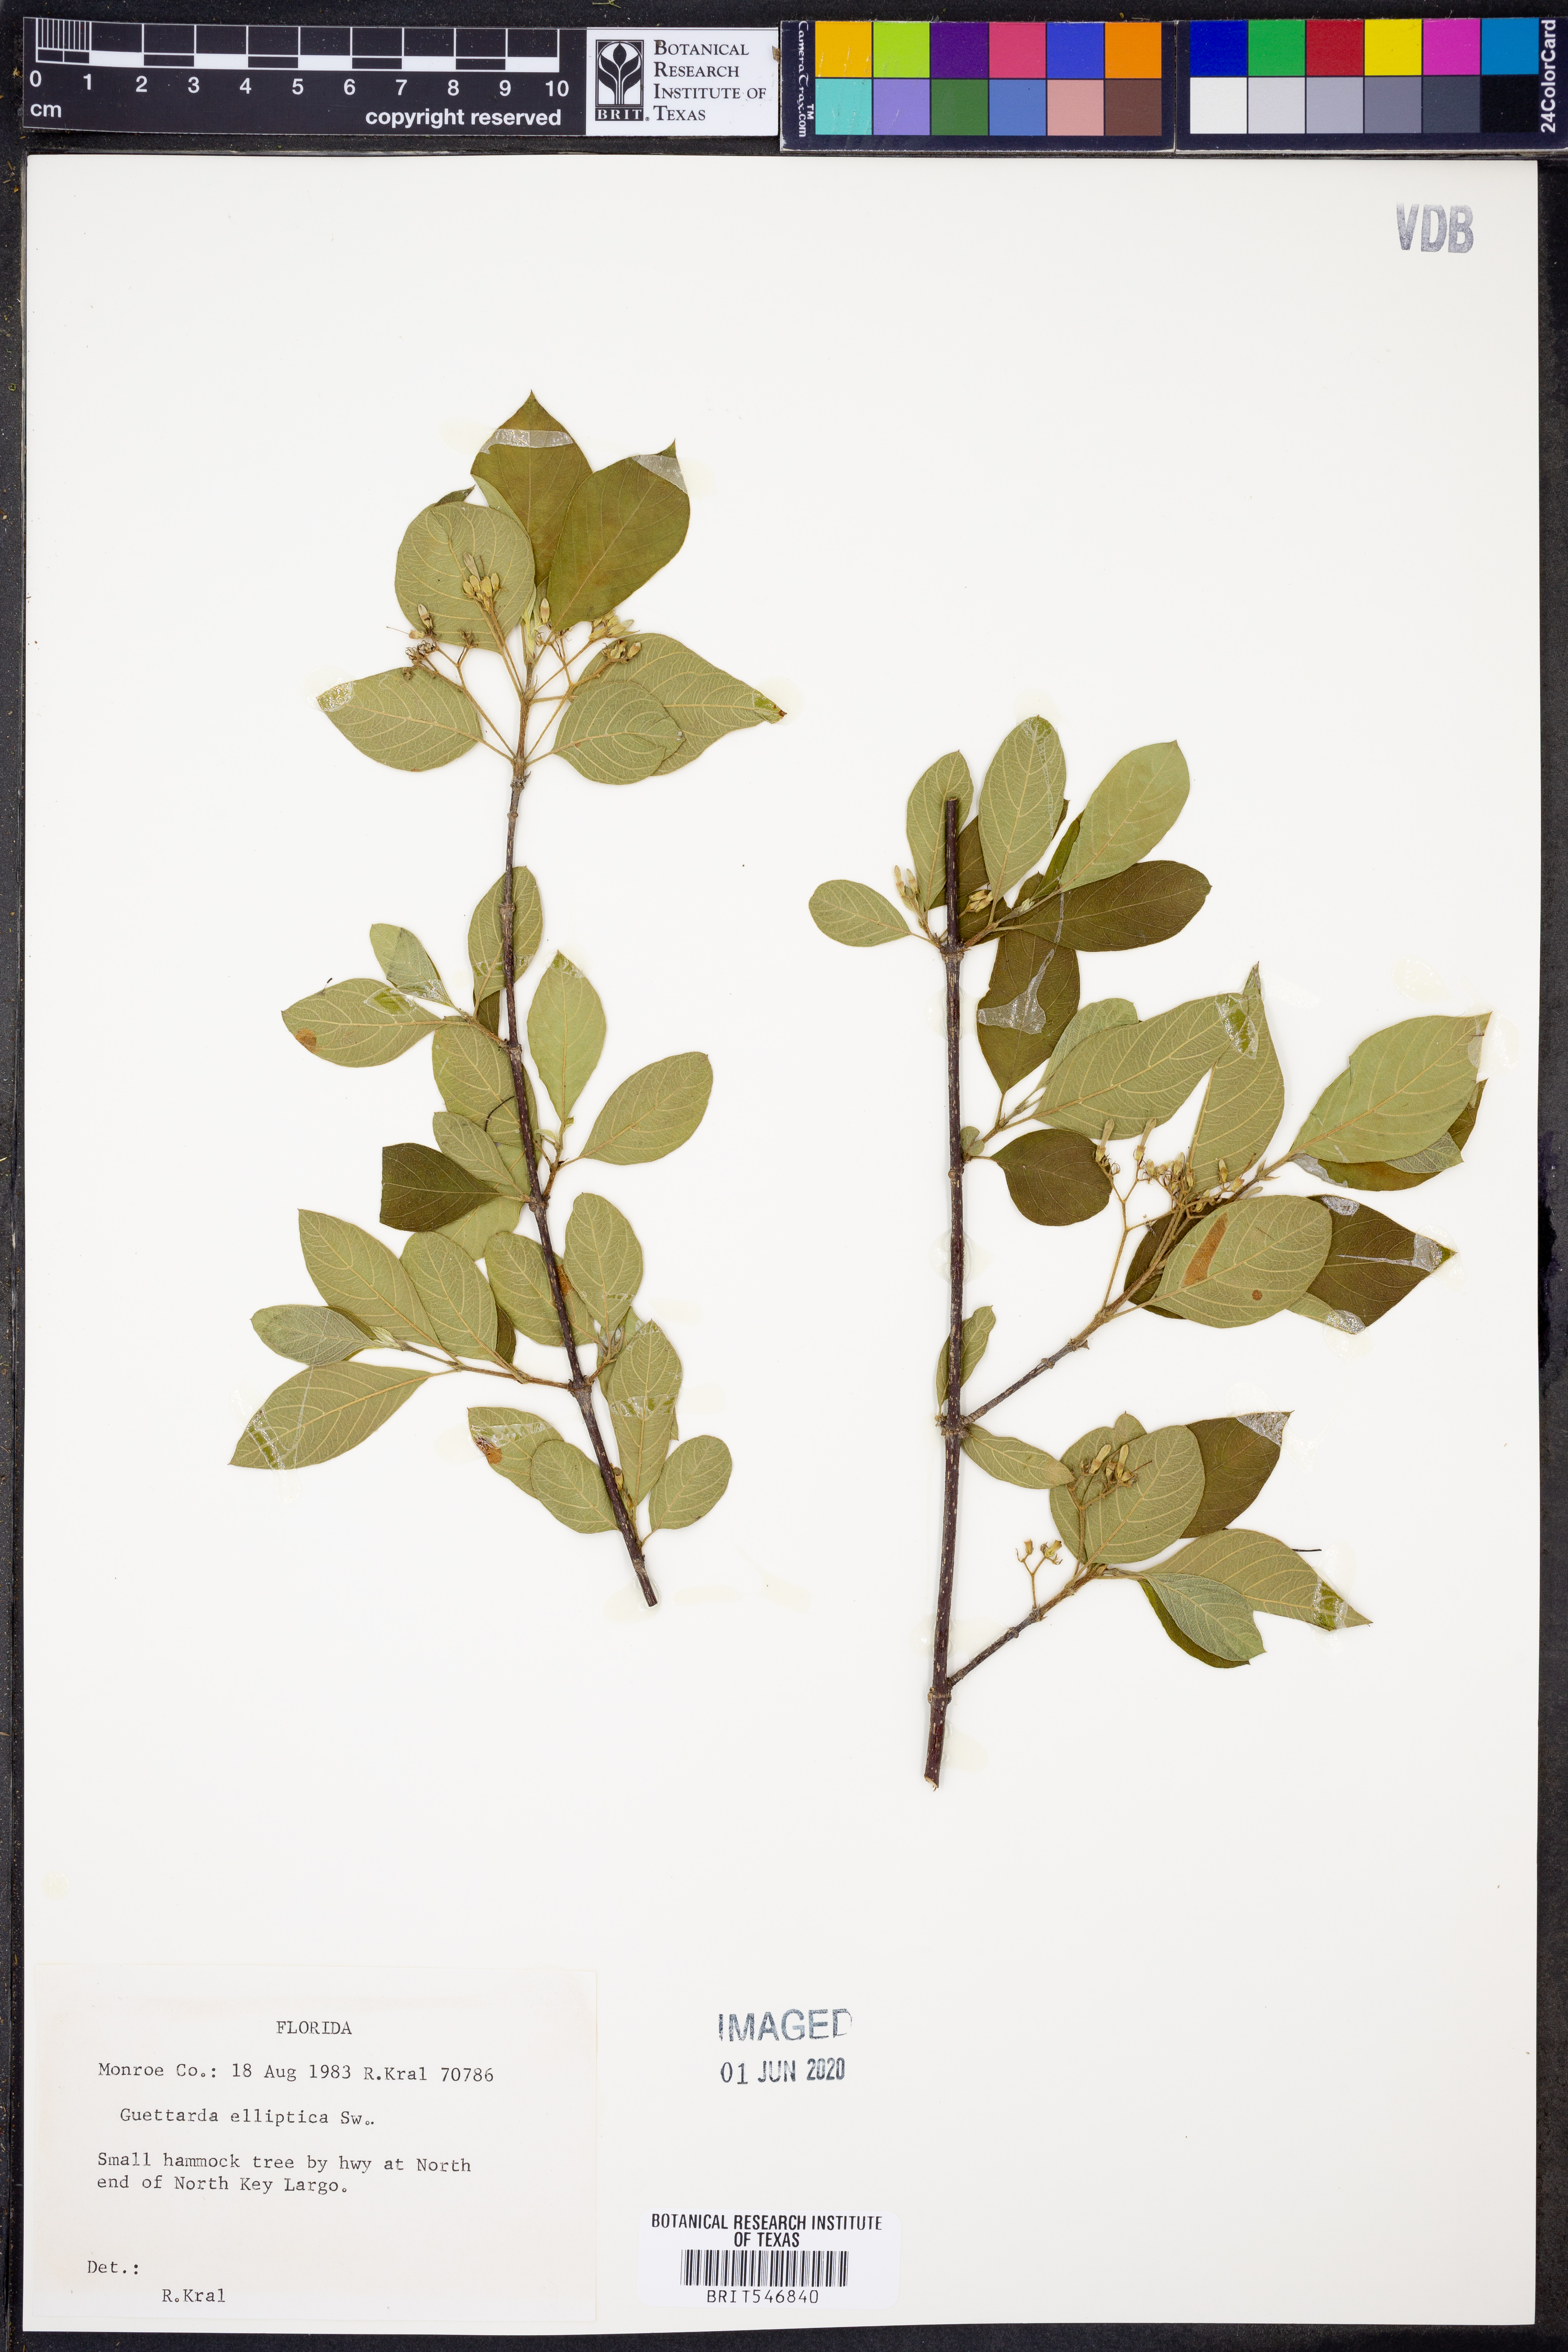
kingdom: Plantae
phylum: Tracheophyta
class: Magnoliopsida
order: Gentianales
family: Rubiaceae
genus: Guettarda
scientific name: Guettarda elliptica
